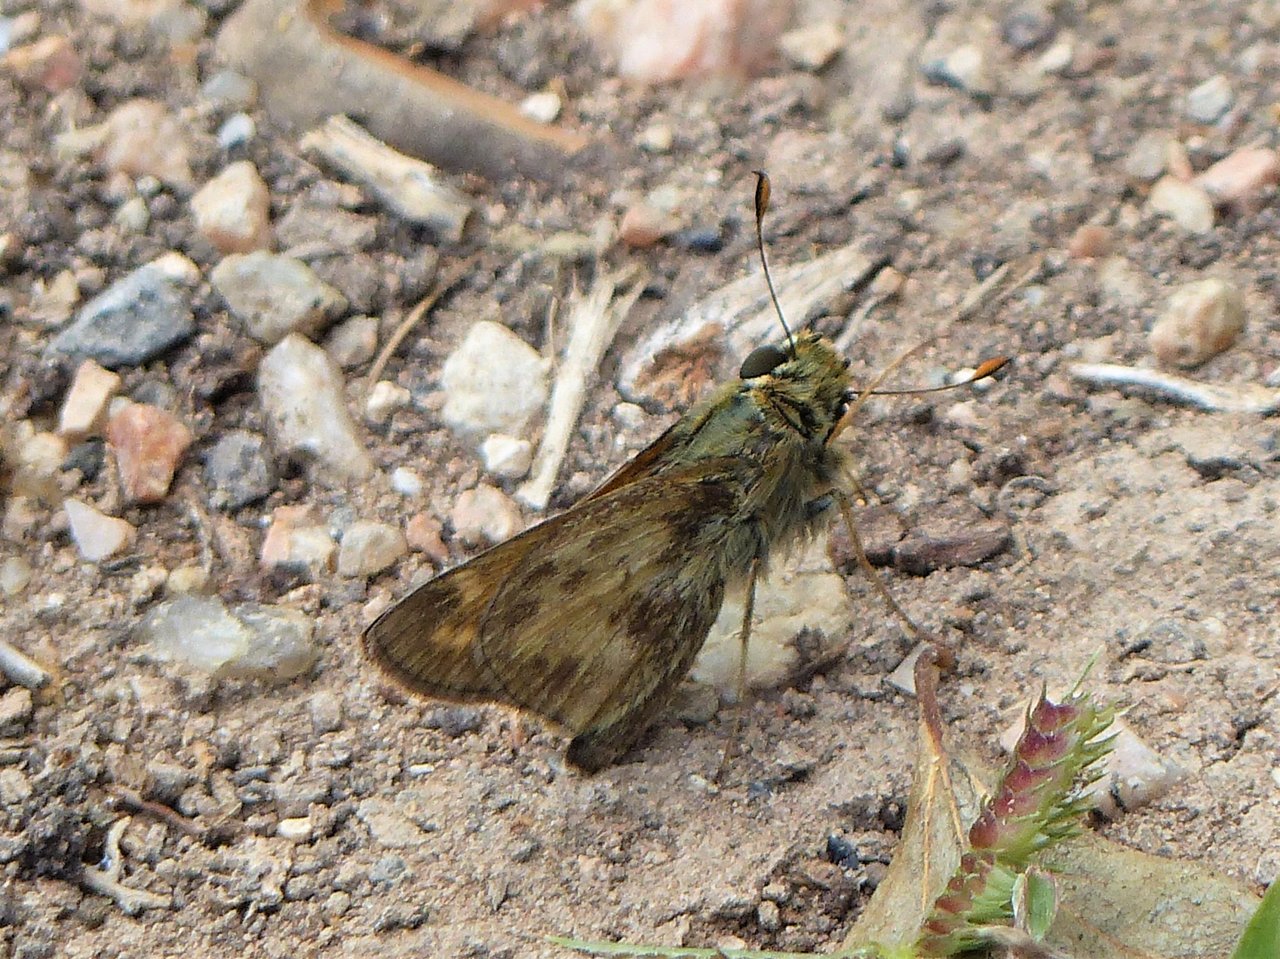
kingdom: Animalia
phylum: Arthropoda
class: Insecta
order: Lepidoptera
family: Hesperiidae
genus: Polites
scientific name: Polites vibex
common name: Whirlabout
